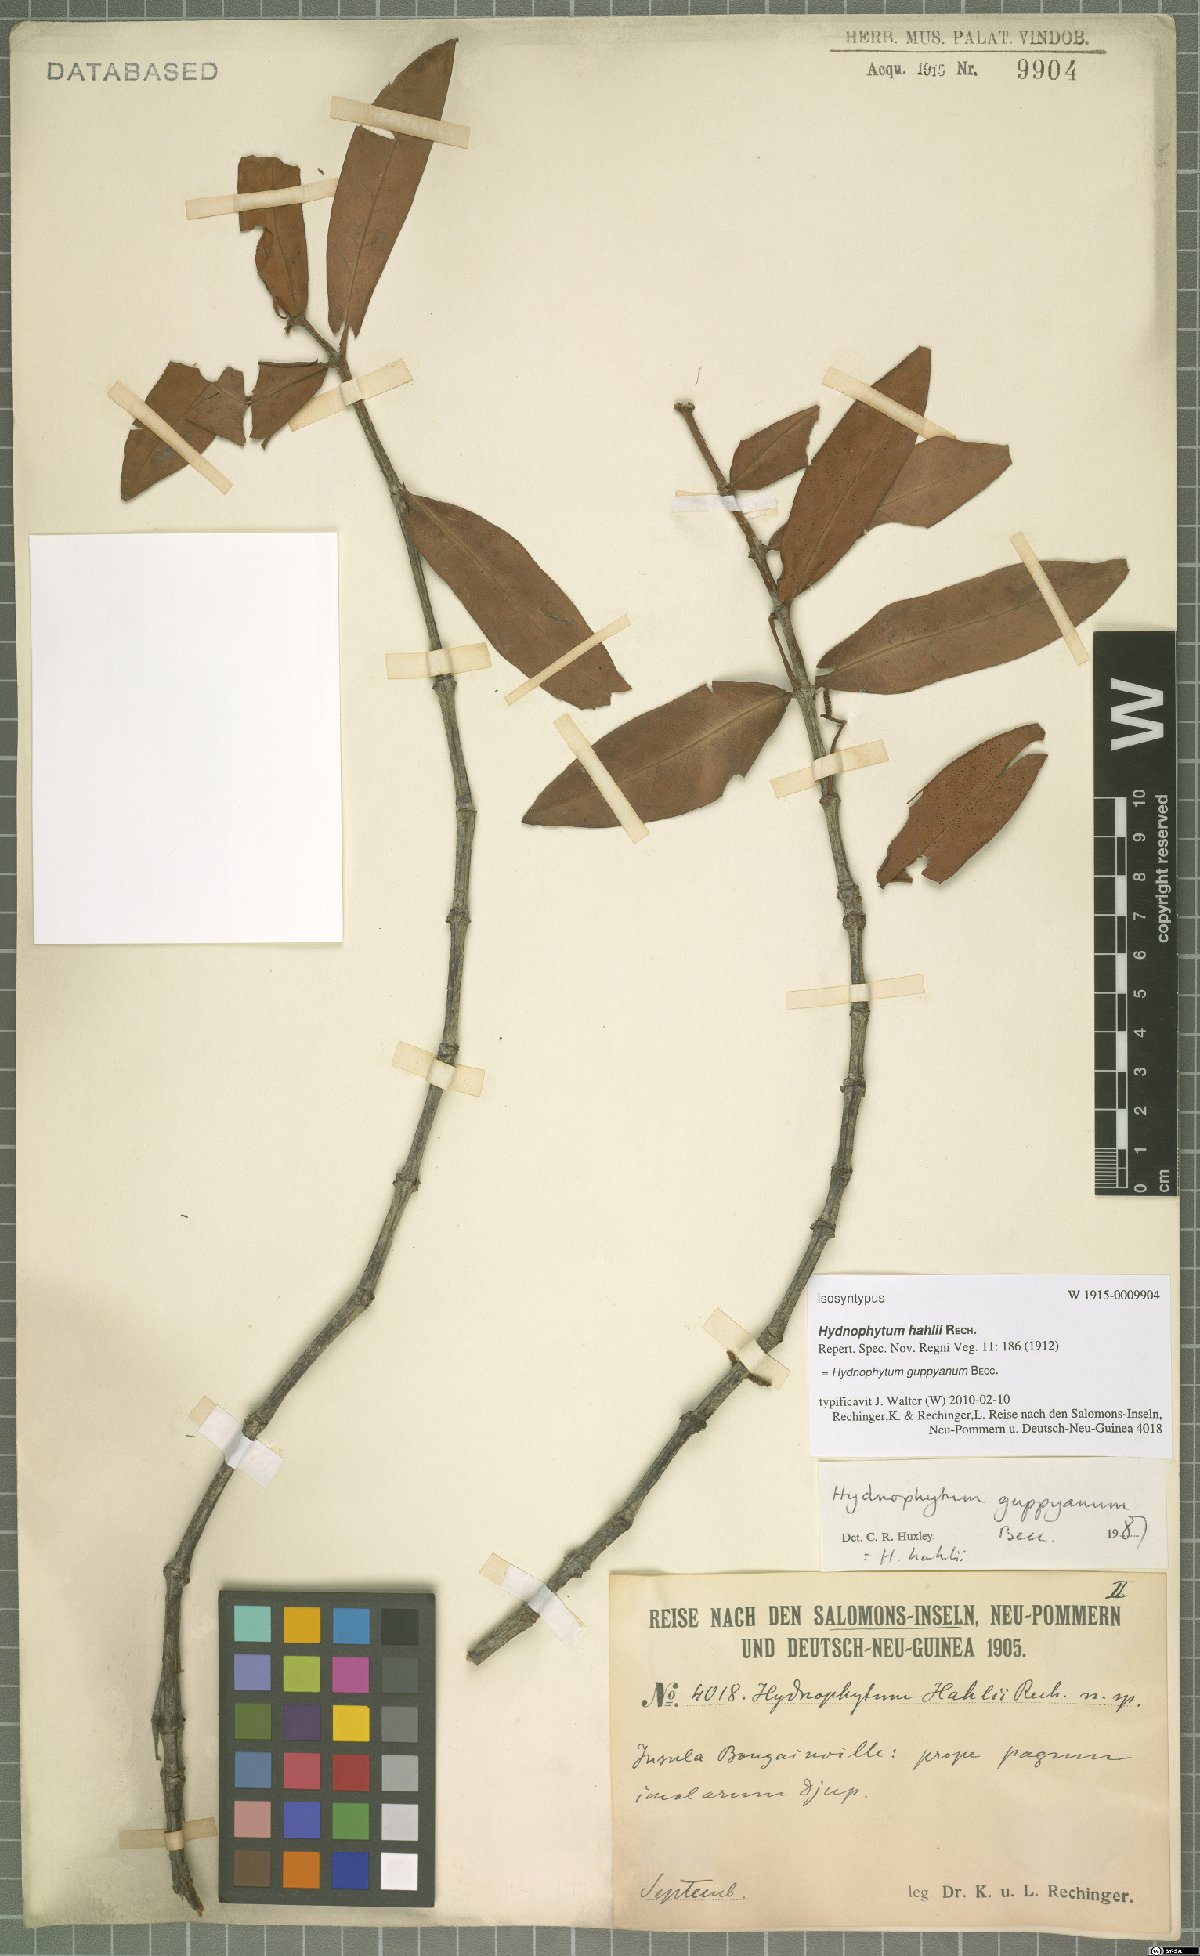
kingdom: Plantae
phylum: Tracheophyta
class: Magnoliopsida
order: Gentianales
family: Rubiaceae
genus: Squamellaria
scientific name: Squamellaria guppyana
